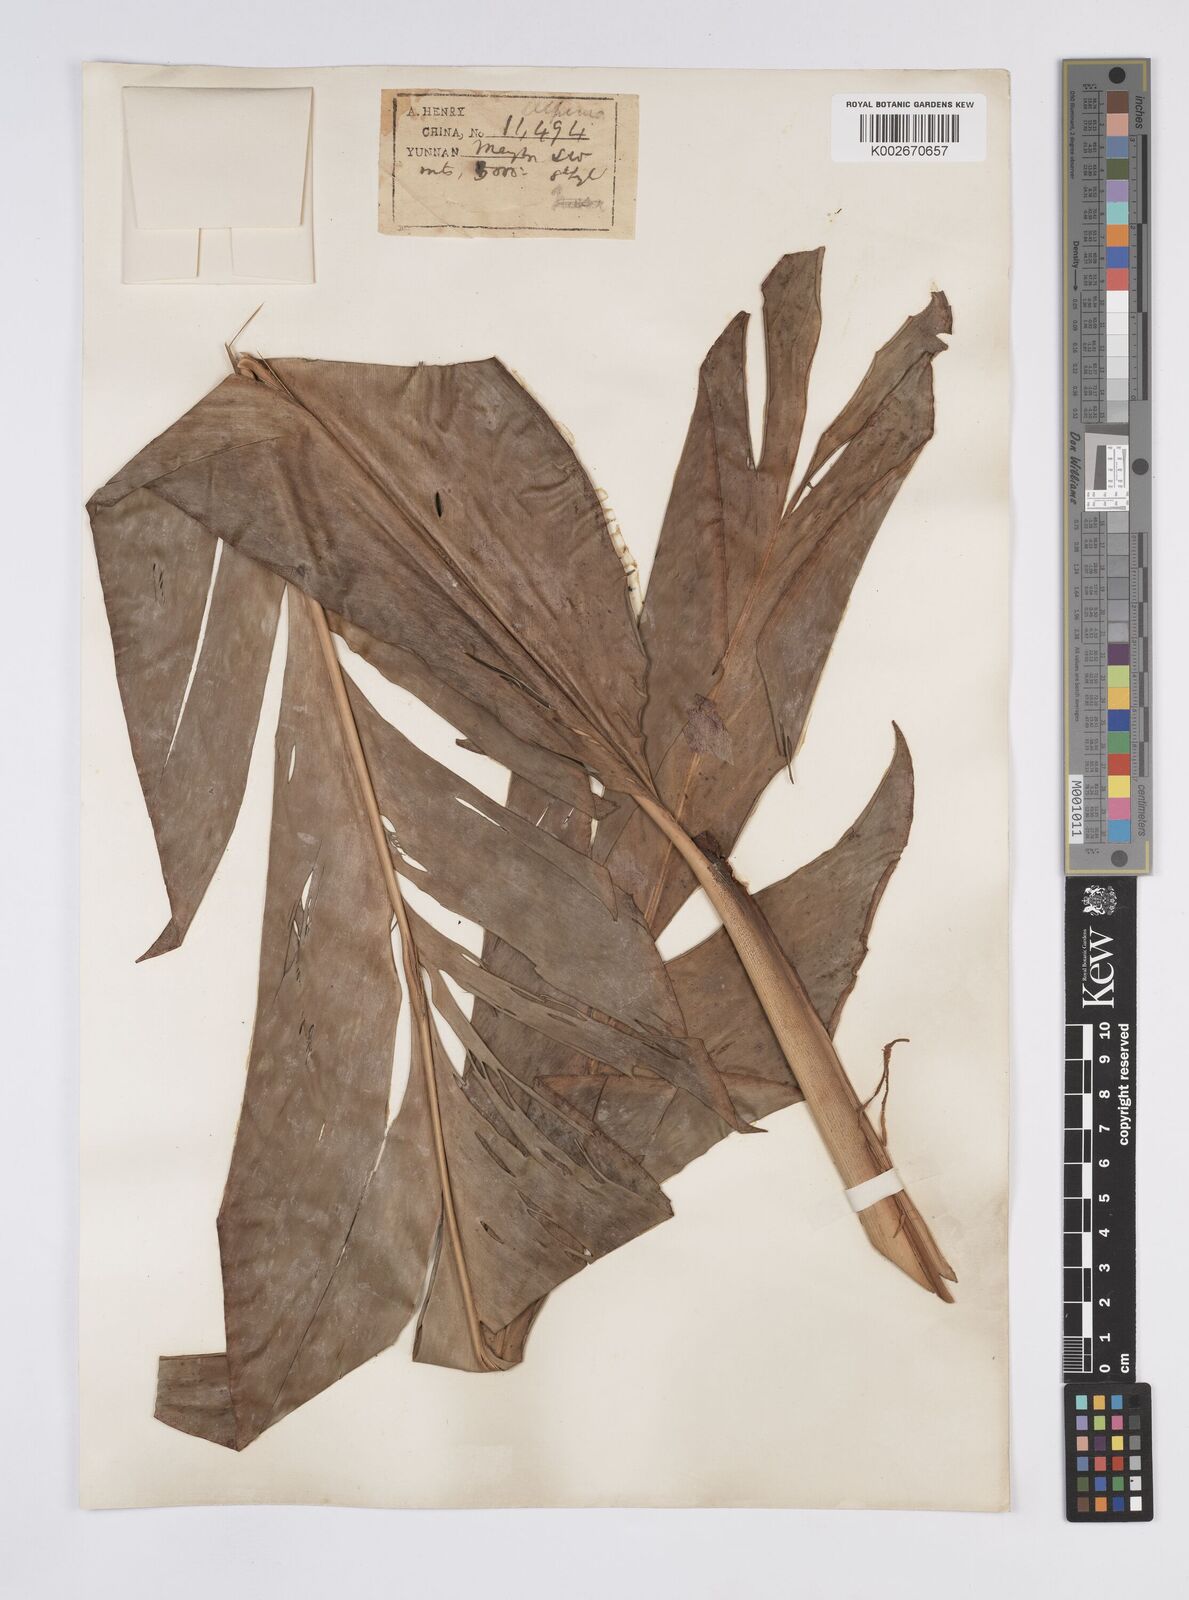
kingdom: Plantae
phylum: Tracheophyta
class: Liliopsida
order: Zingiberales
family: Zingiberaceae
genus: Alpinia
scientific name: Alpinia
